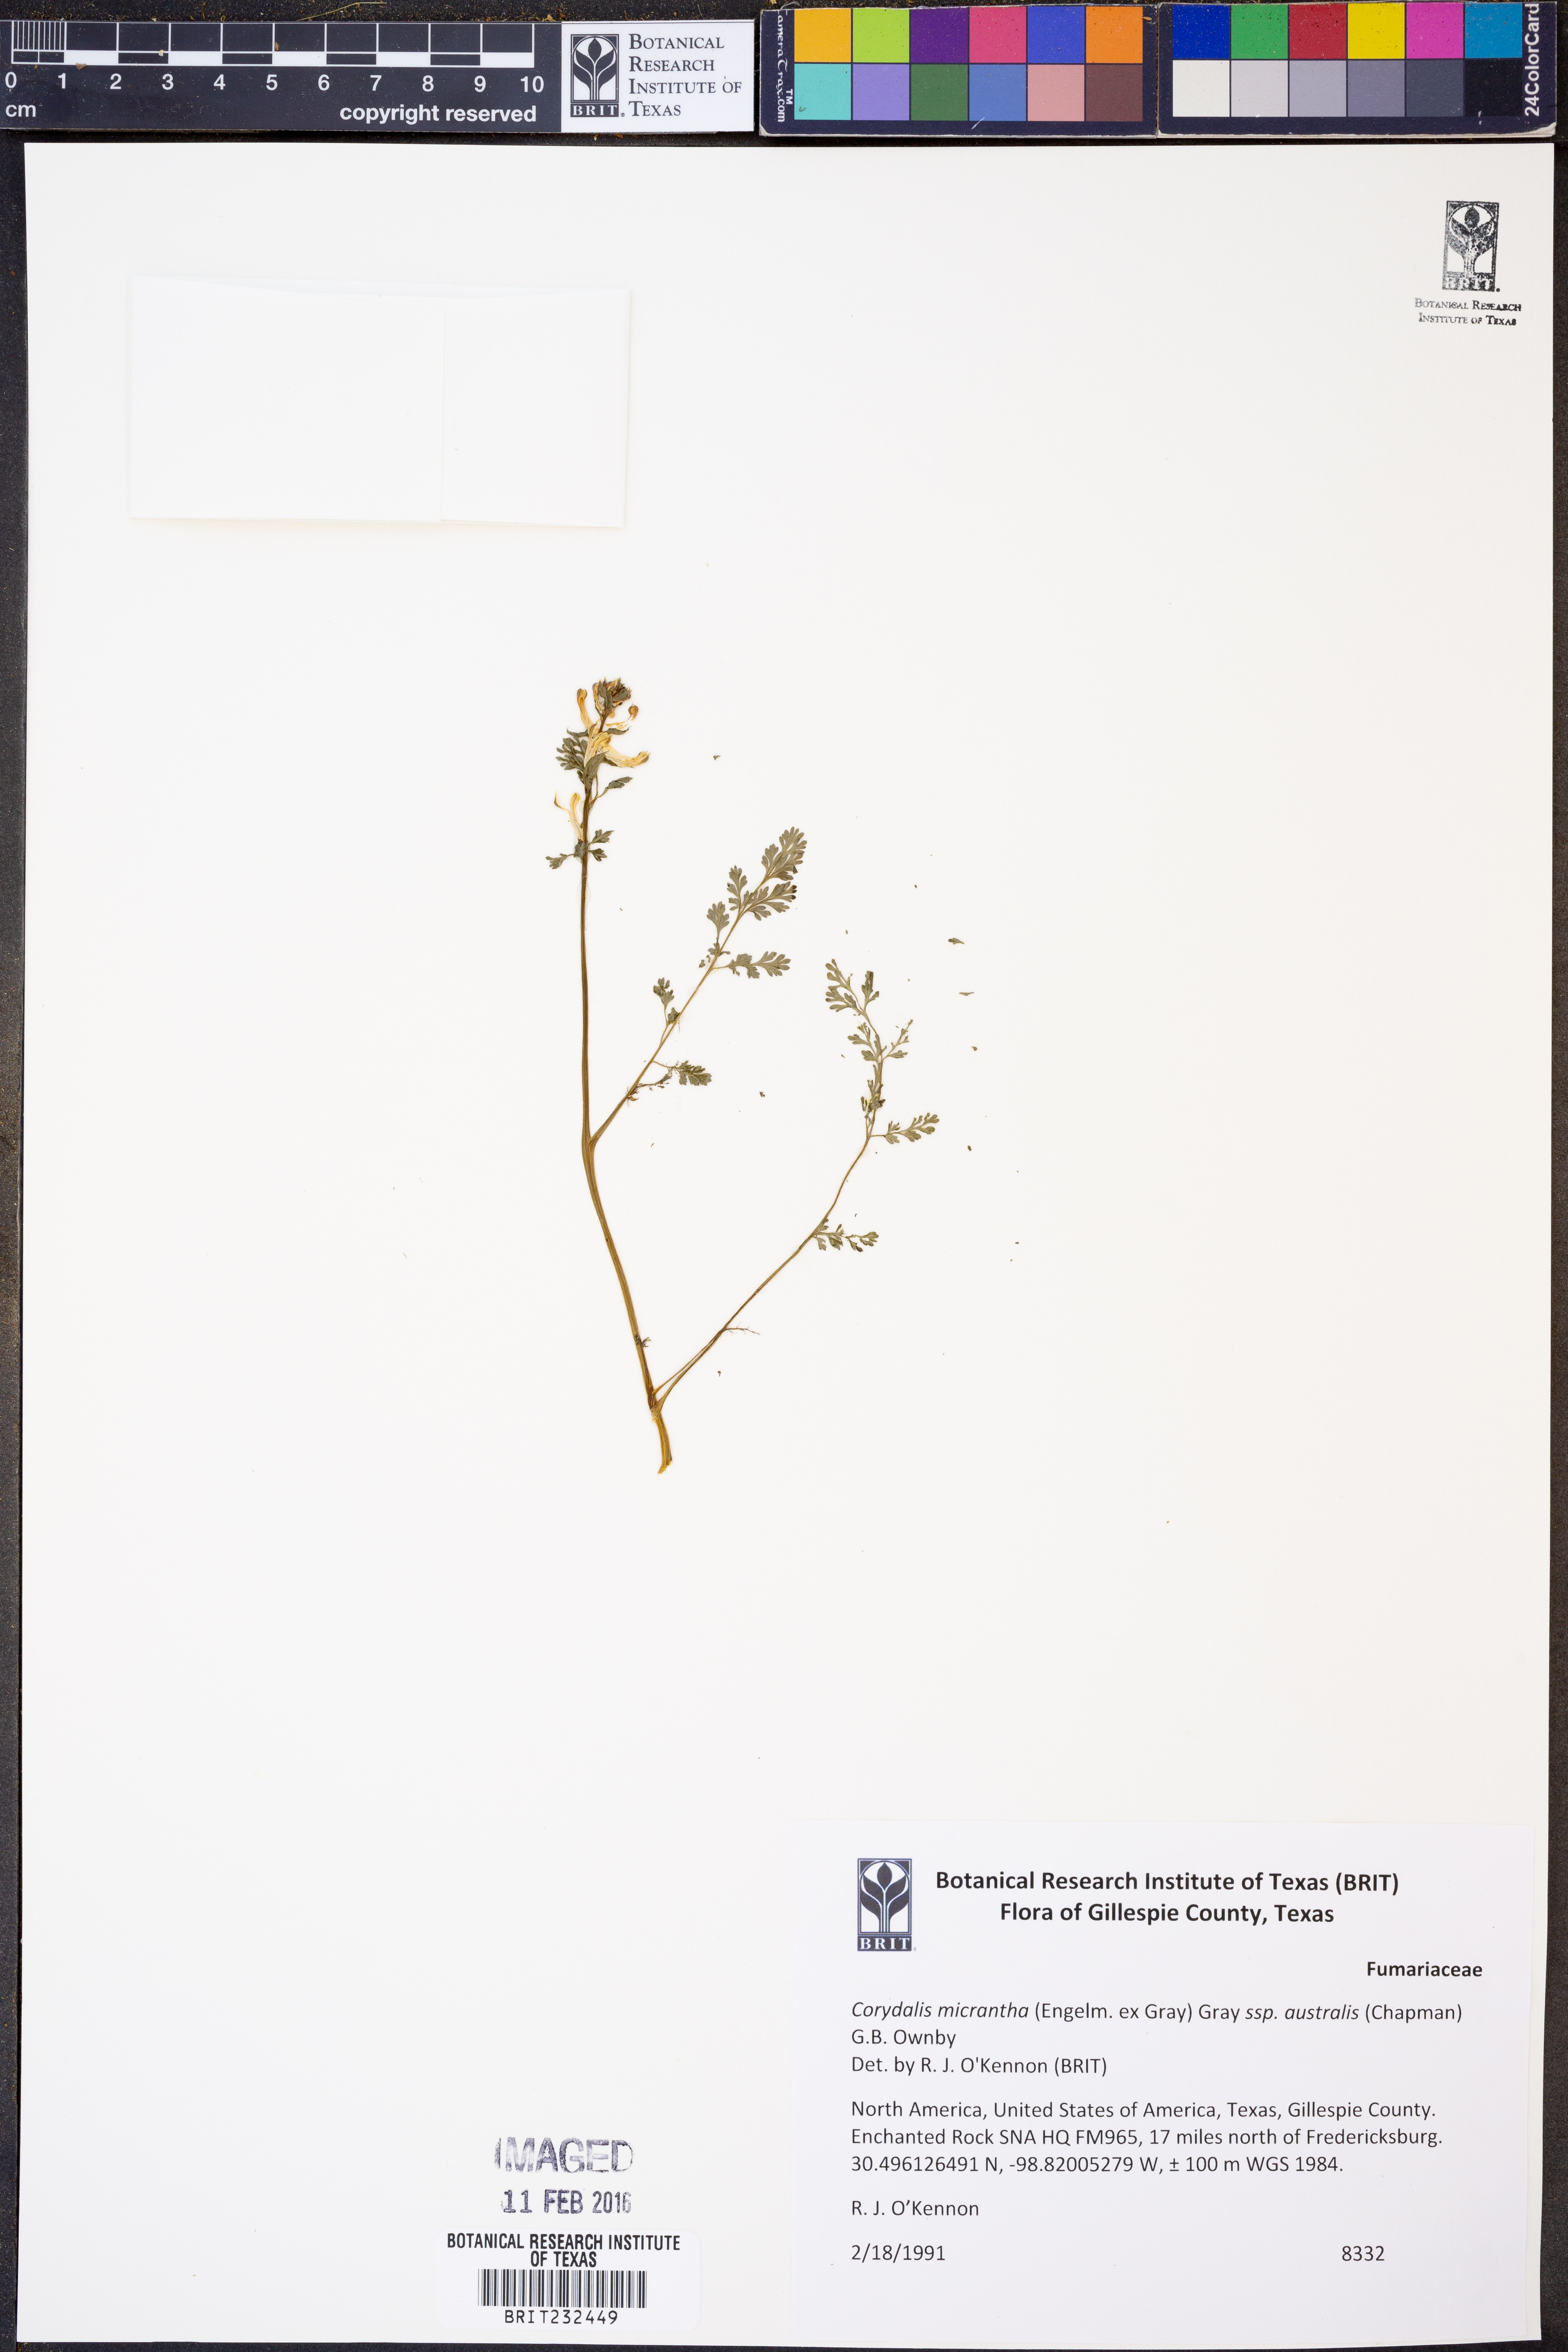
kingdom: Plantae
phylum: Tracheophyta
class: Magnoliopsida
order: Ranunculales
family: Papaveraceae
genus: Corydalis
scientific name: Corydalis micrantha
